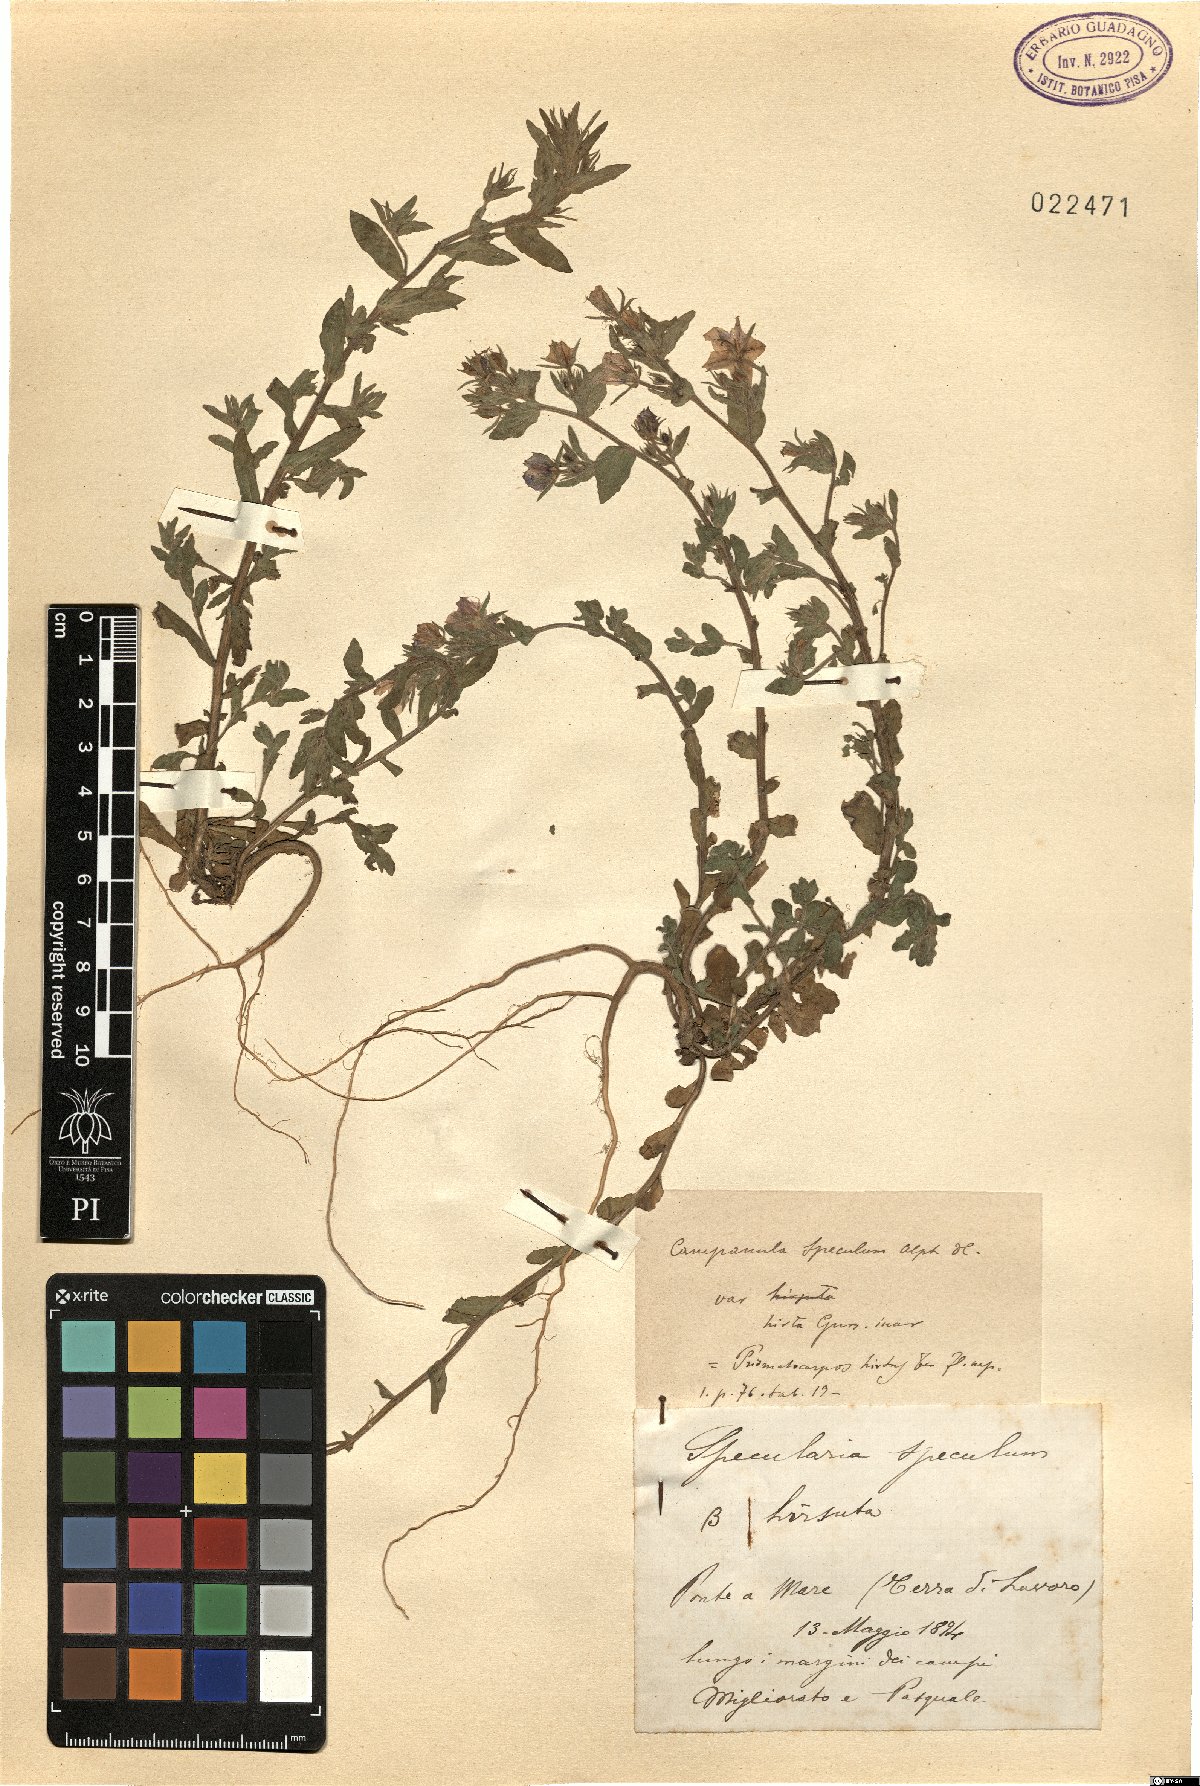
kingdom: Plantae
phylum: Tracheophyta
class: Magnoliopsida
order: Asterales
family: Campanulaceae
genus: Campanula
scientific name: Campanula speculum
